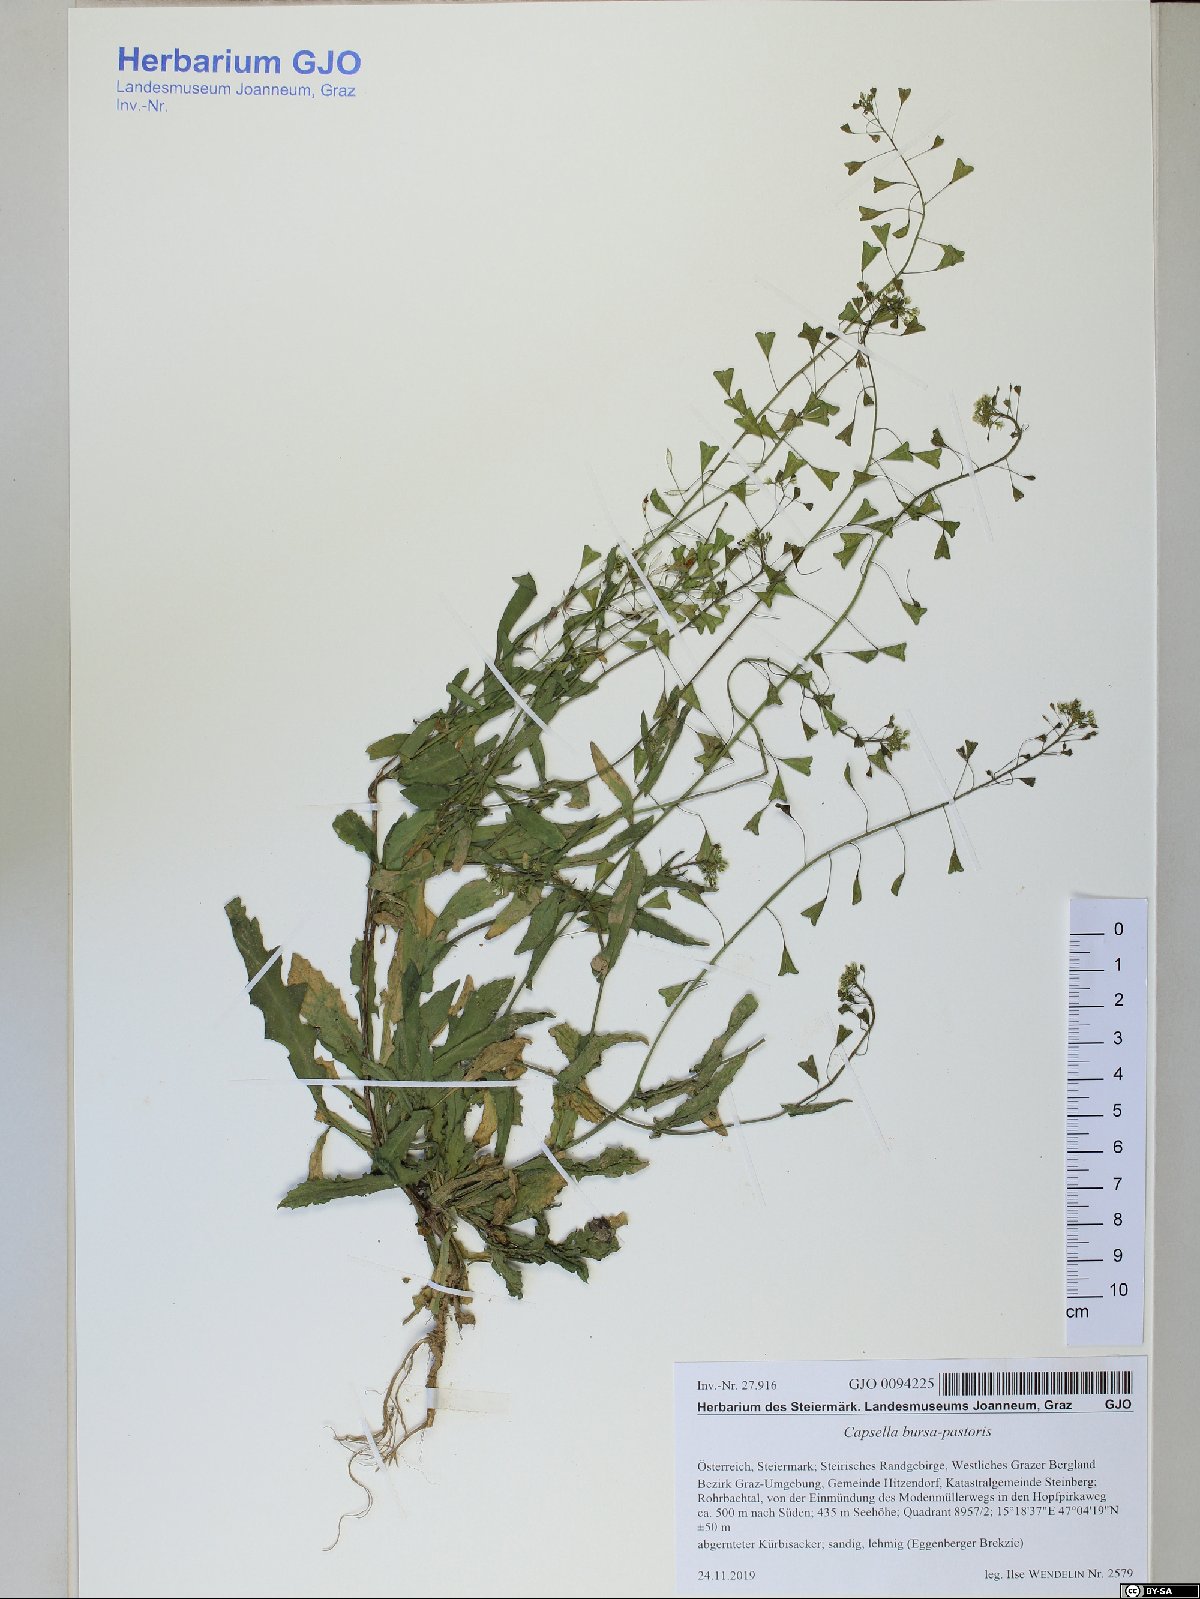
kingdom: Plantae
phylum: Tracheophyta
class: Magnoliopsida
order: Brassicales
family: Brassicaceae
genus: Capsella
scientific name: Capsella bursa-pastoris
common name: Shepherd's purse
